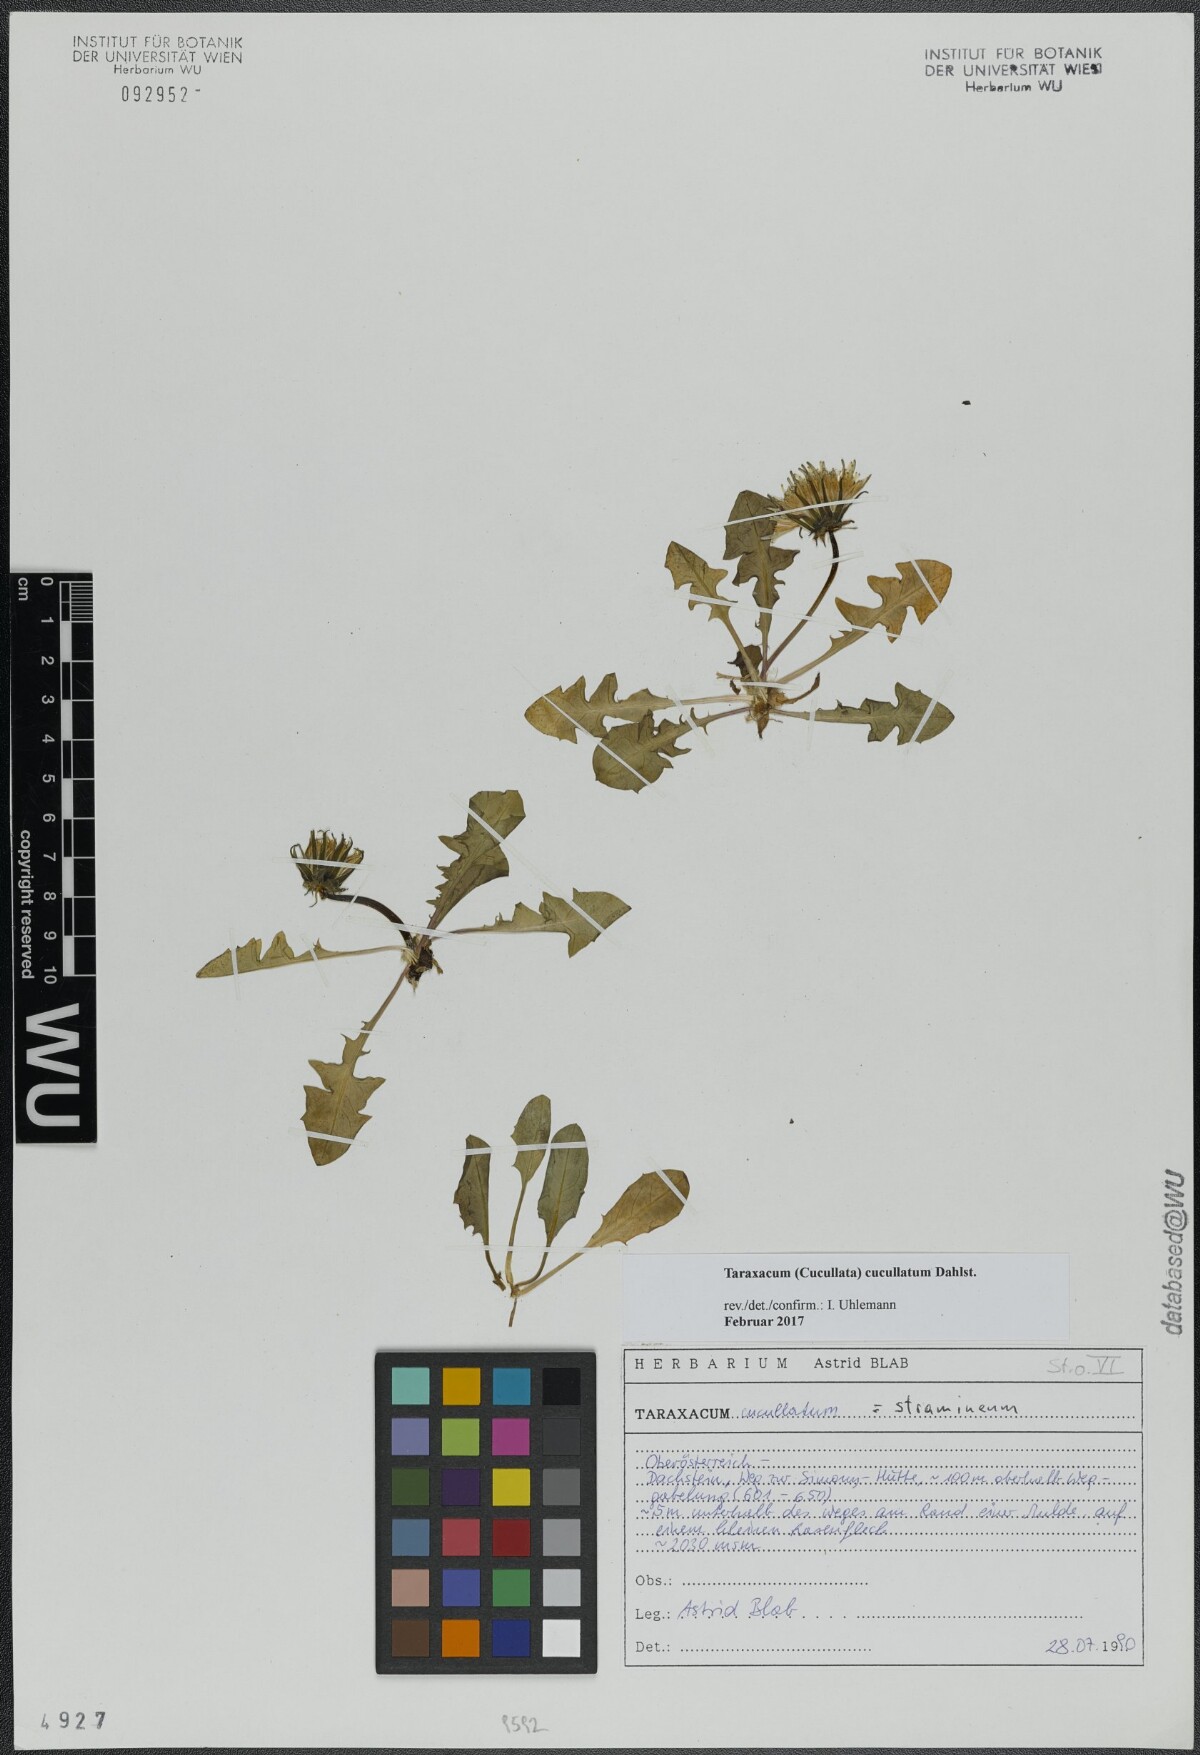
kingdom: Plantae
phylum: Tracheophyta
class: Magnoliopsida
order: Asterales
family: Asteraceae
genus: Taraxacum
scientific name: Taraxacum cucullatum
